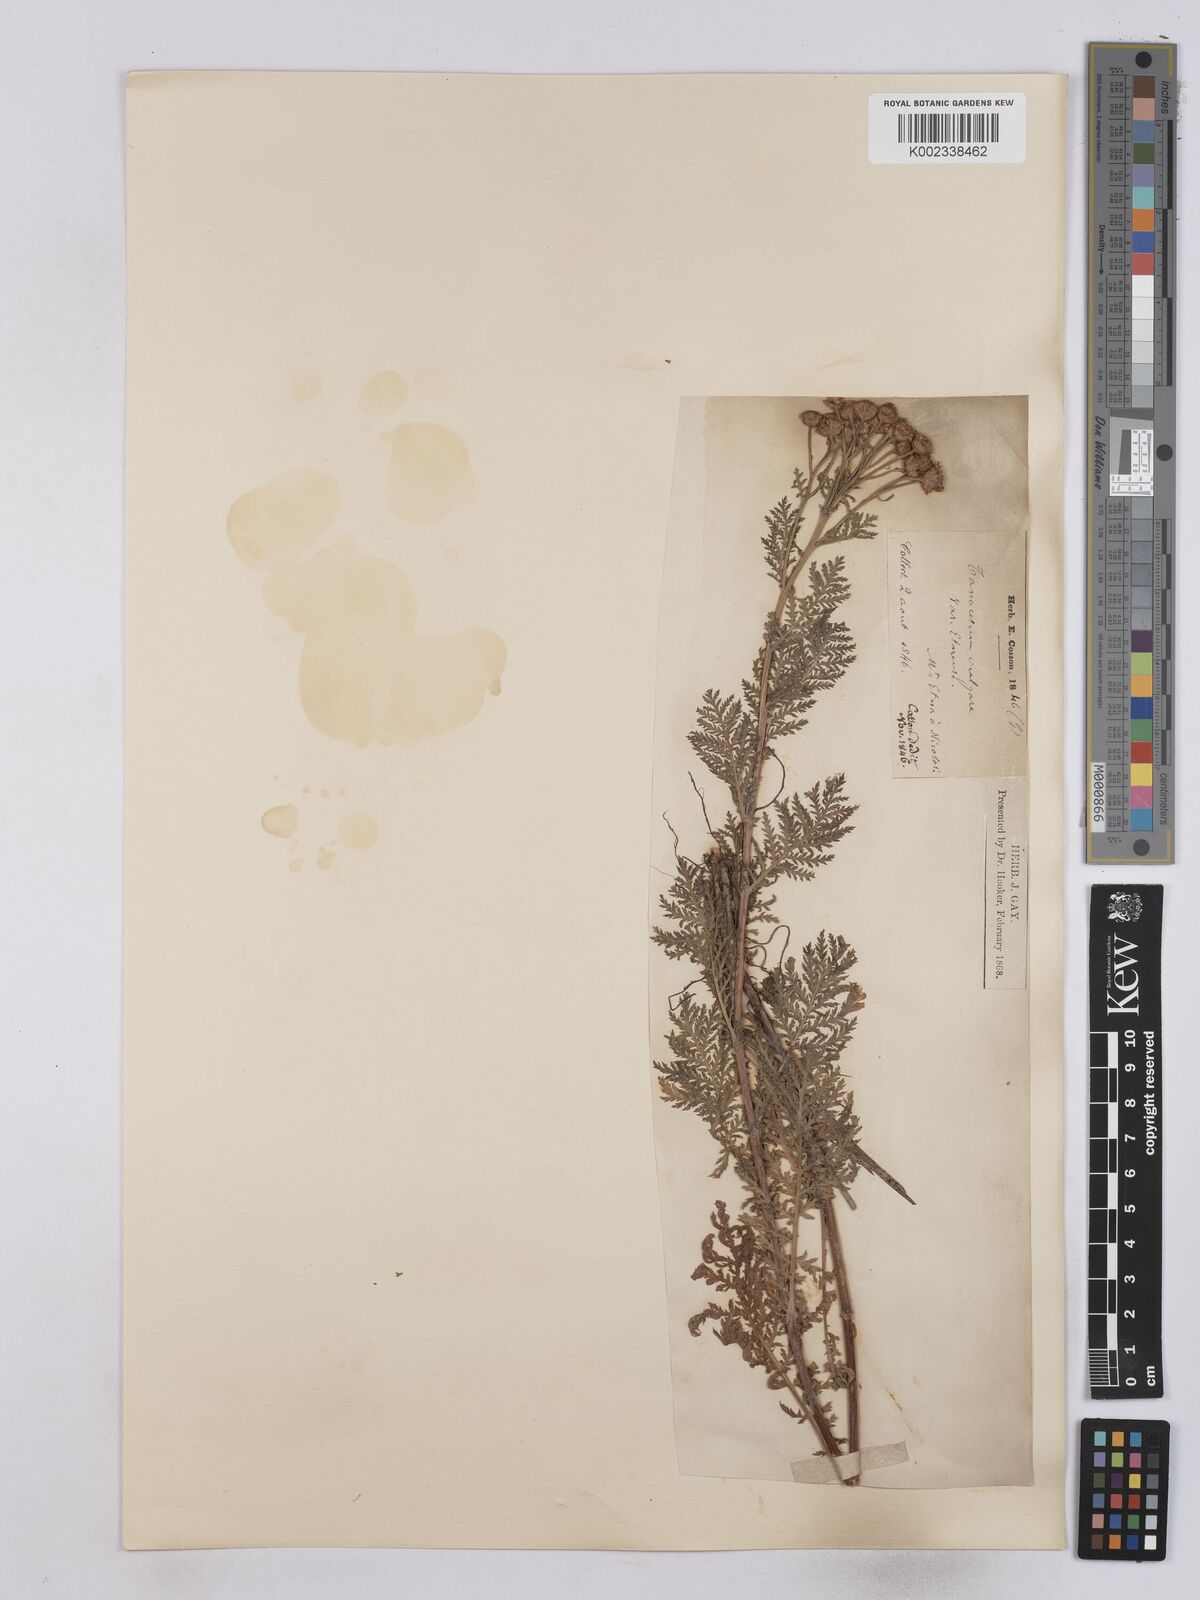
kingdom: Plantae
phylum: Tracheophyta
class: Magnoliopsida
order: Asterales
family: Asteraceae
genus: Tanacetum
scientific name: Tanacetum vulgare
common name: Common tansy
